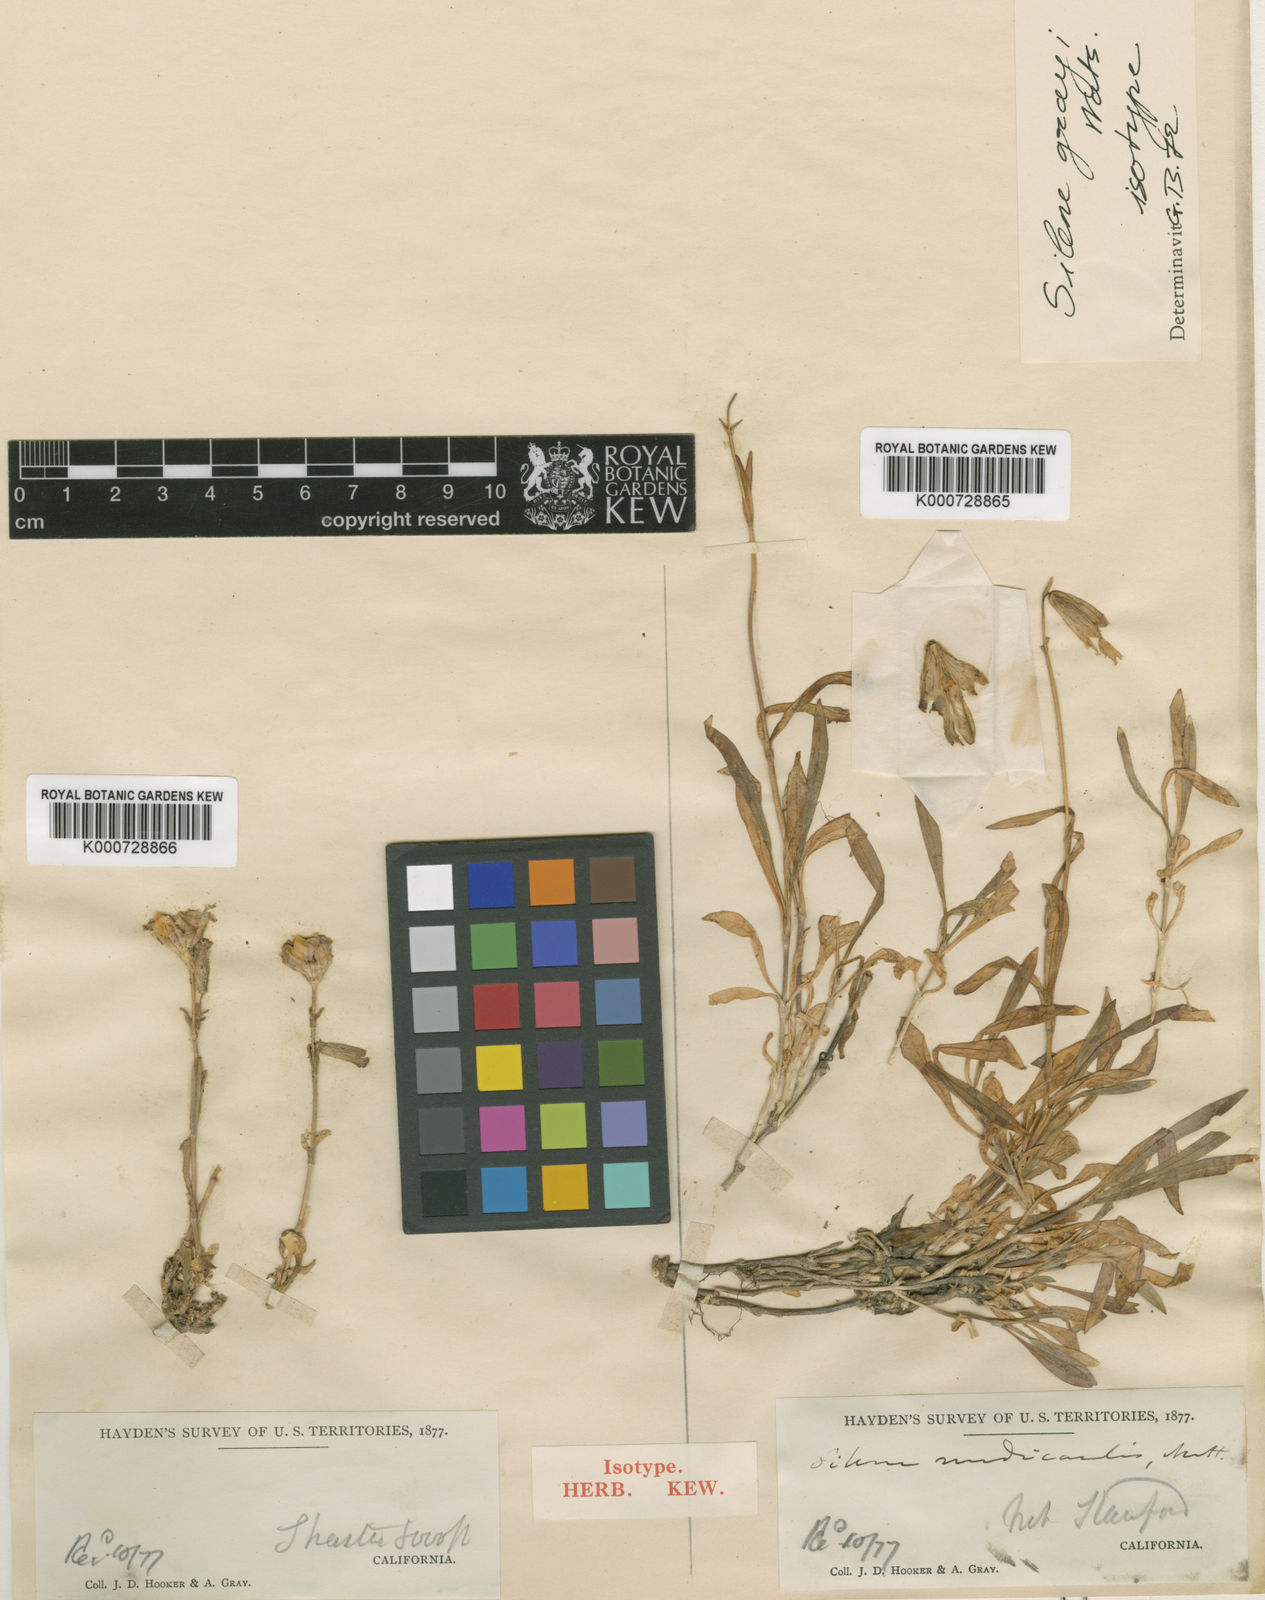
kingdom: Plantae
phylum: Tracheophyta
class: Magnoliopsida
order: Caryophyllales
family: Caryophyllaceae
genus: Silene
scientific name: Silene grayi
